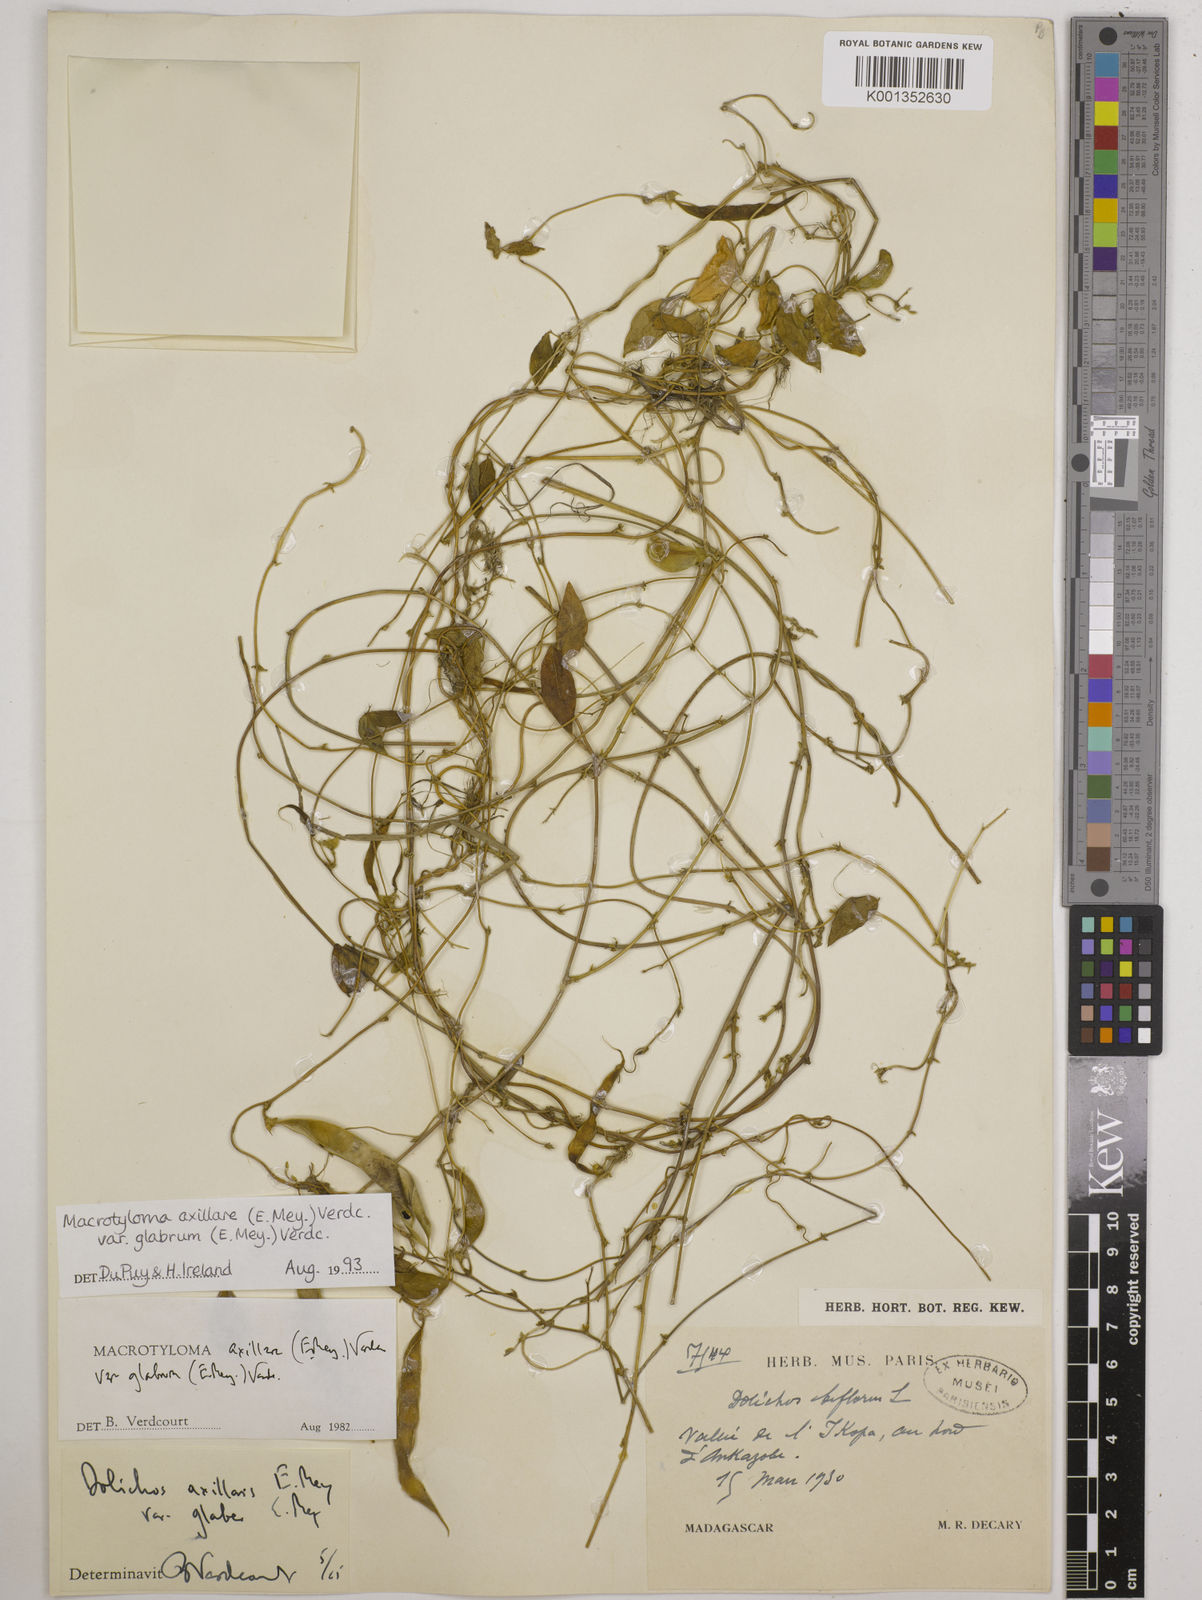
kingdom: Plantae
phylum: Tracheophyta
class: Magnoliopsida
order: Fabales
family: Fabaceae
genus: Macrotyloma
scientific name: Macrotyloma
